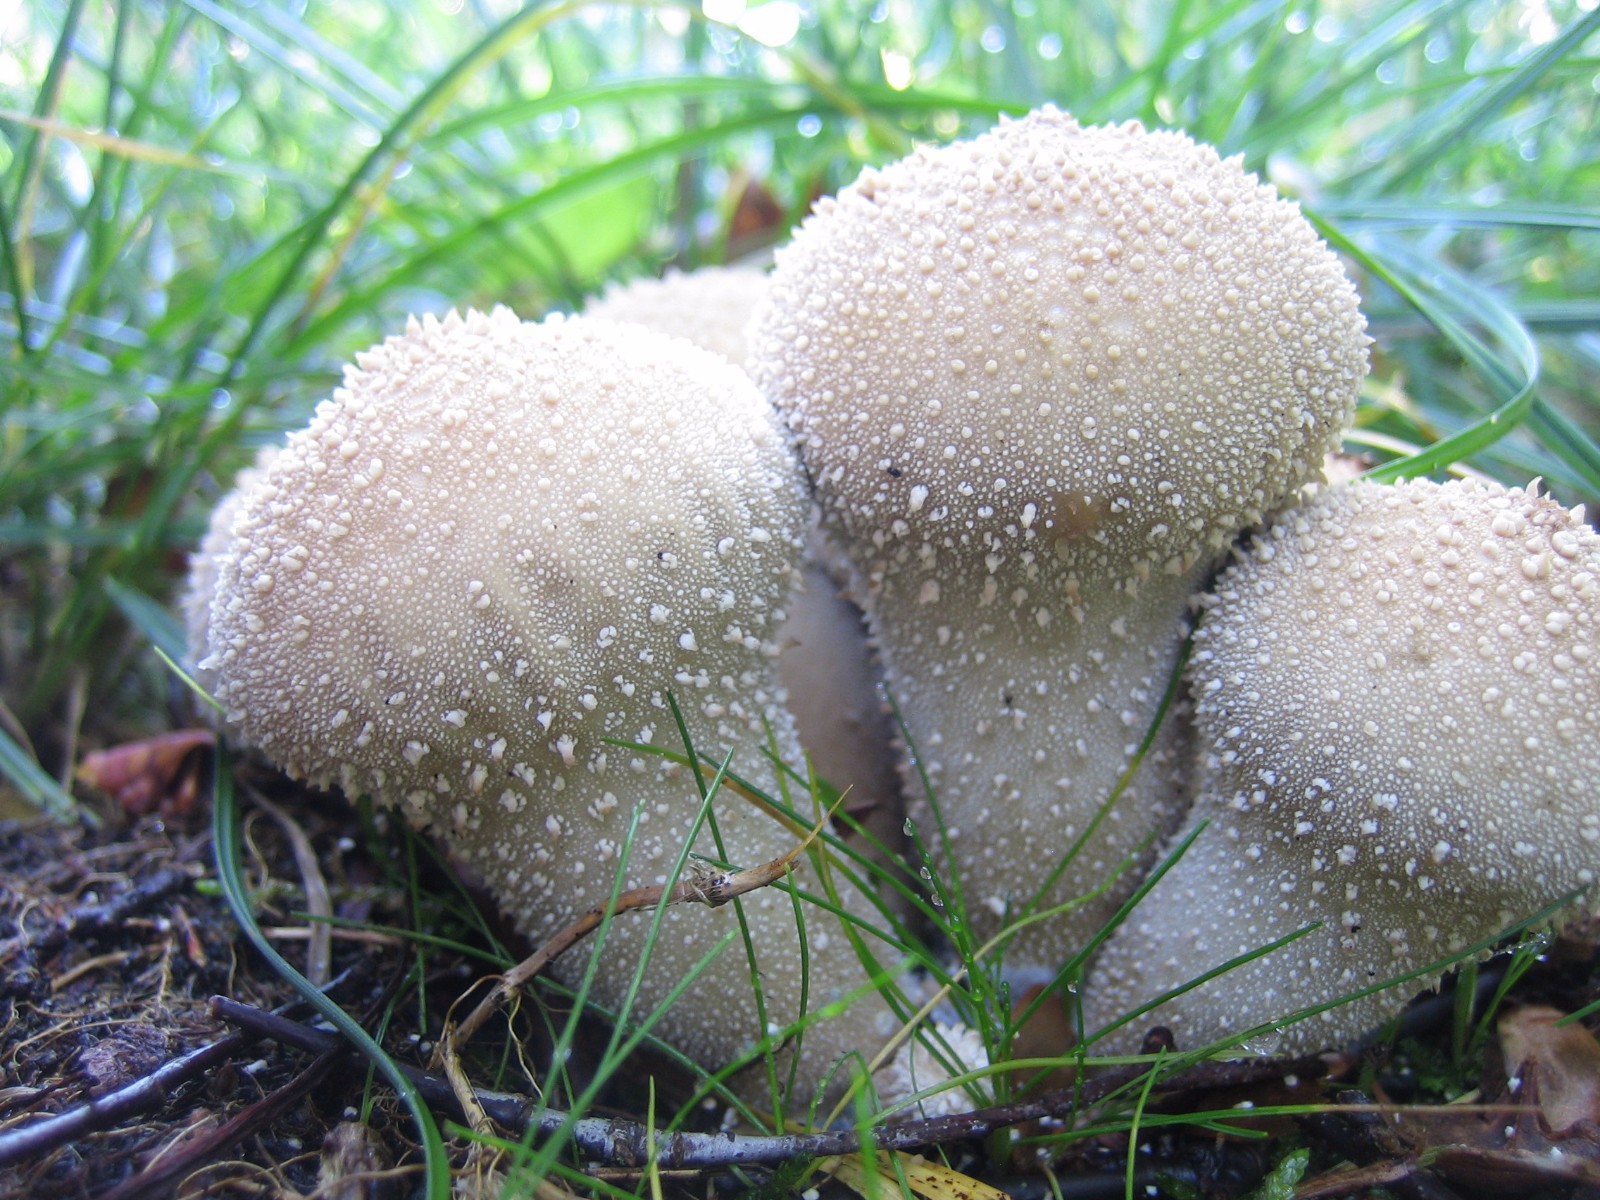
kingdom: Fungi
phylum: Basidiomycota
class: Agaricomycetes
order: Agaricales
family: Lycoperdaceae
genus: Lycoperdon
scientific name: Lycoperdon perlatum
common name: krystal-støvbold
